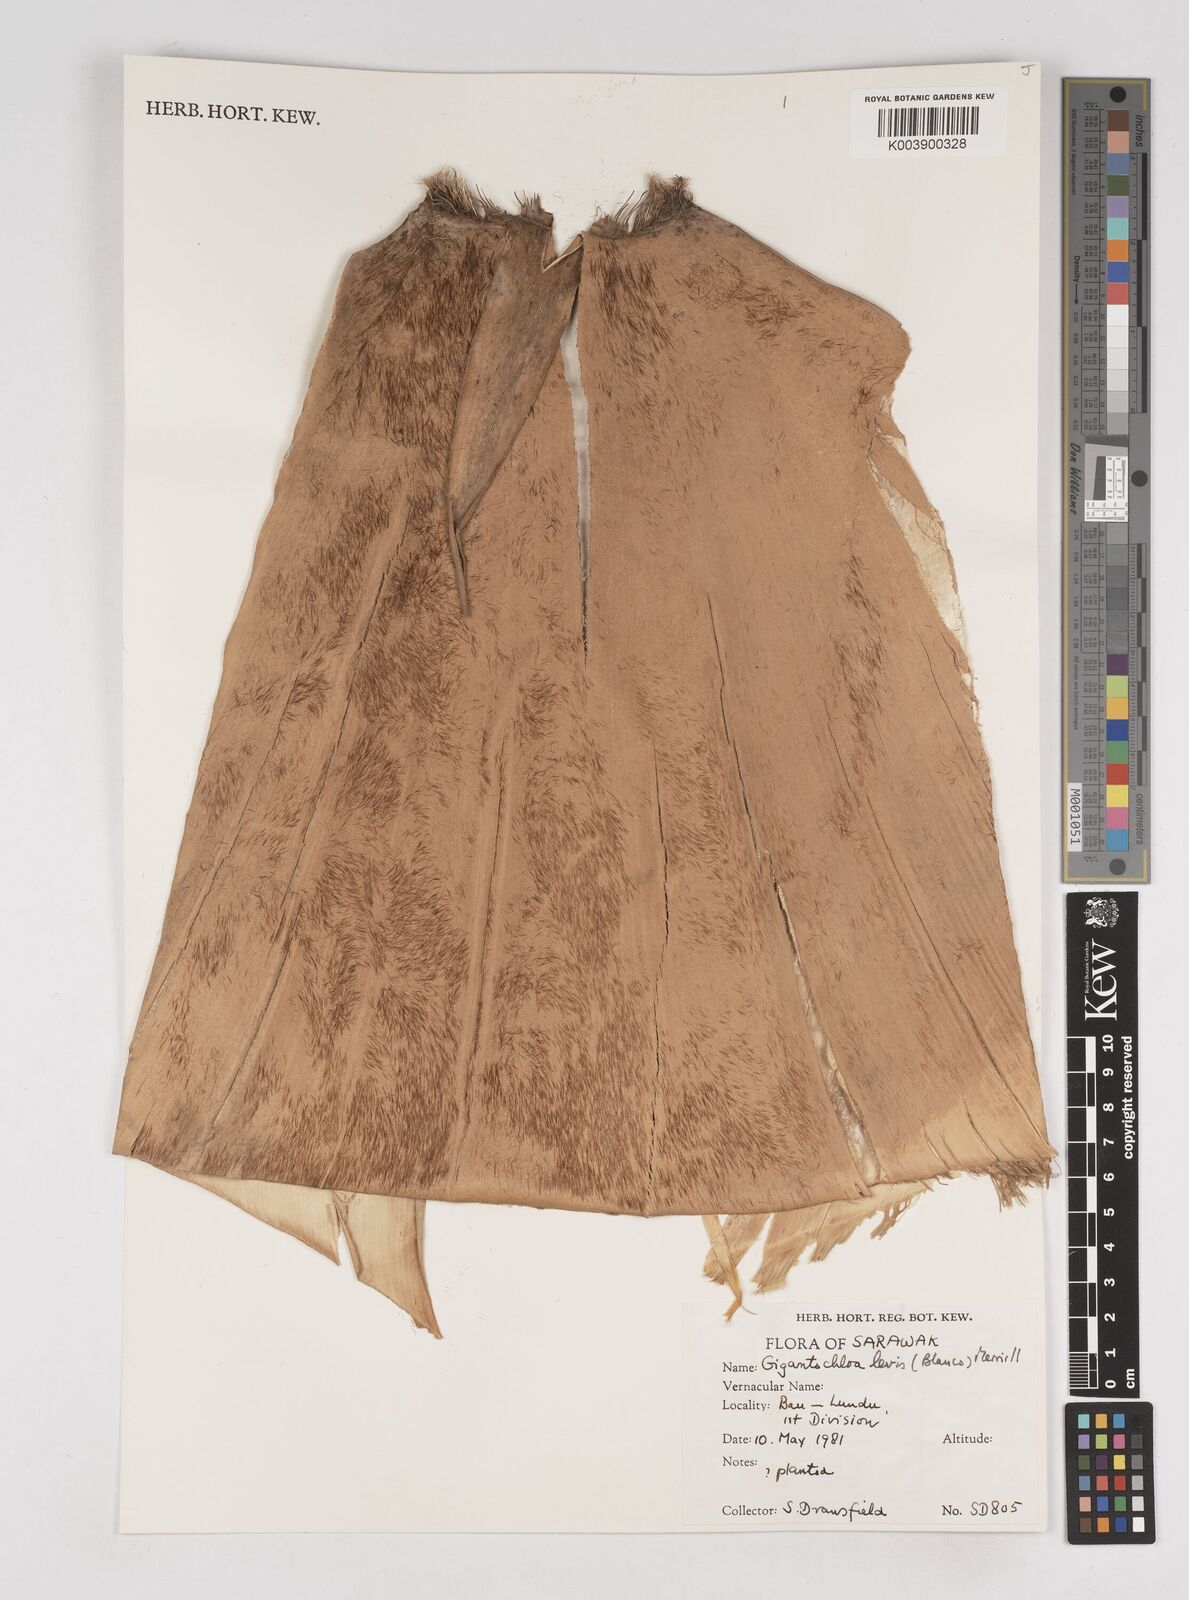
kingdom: Plantae
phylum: Tracheophyta
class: Liliopsida
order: Poales
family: Poaceae
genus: Gigantochloa
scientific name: Gigantochloa levis
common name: Smooth-shoot gigantochloa
